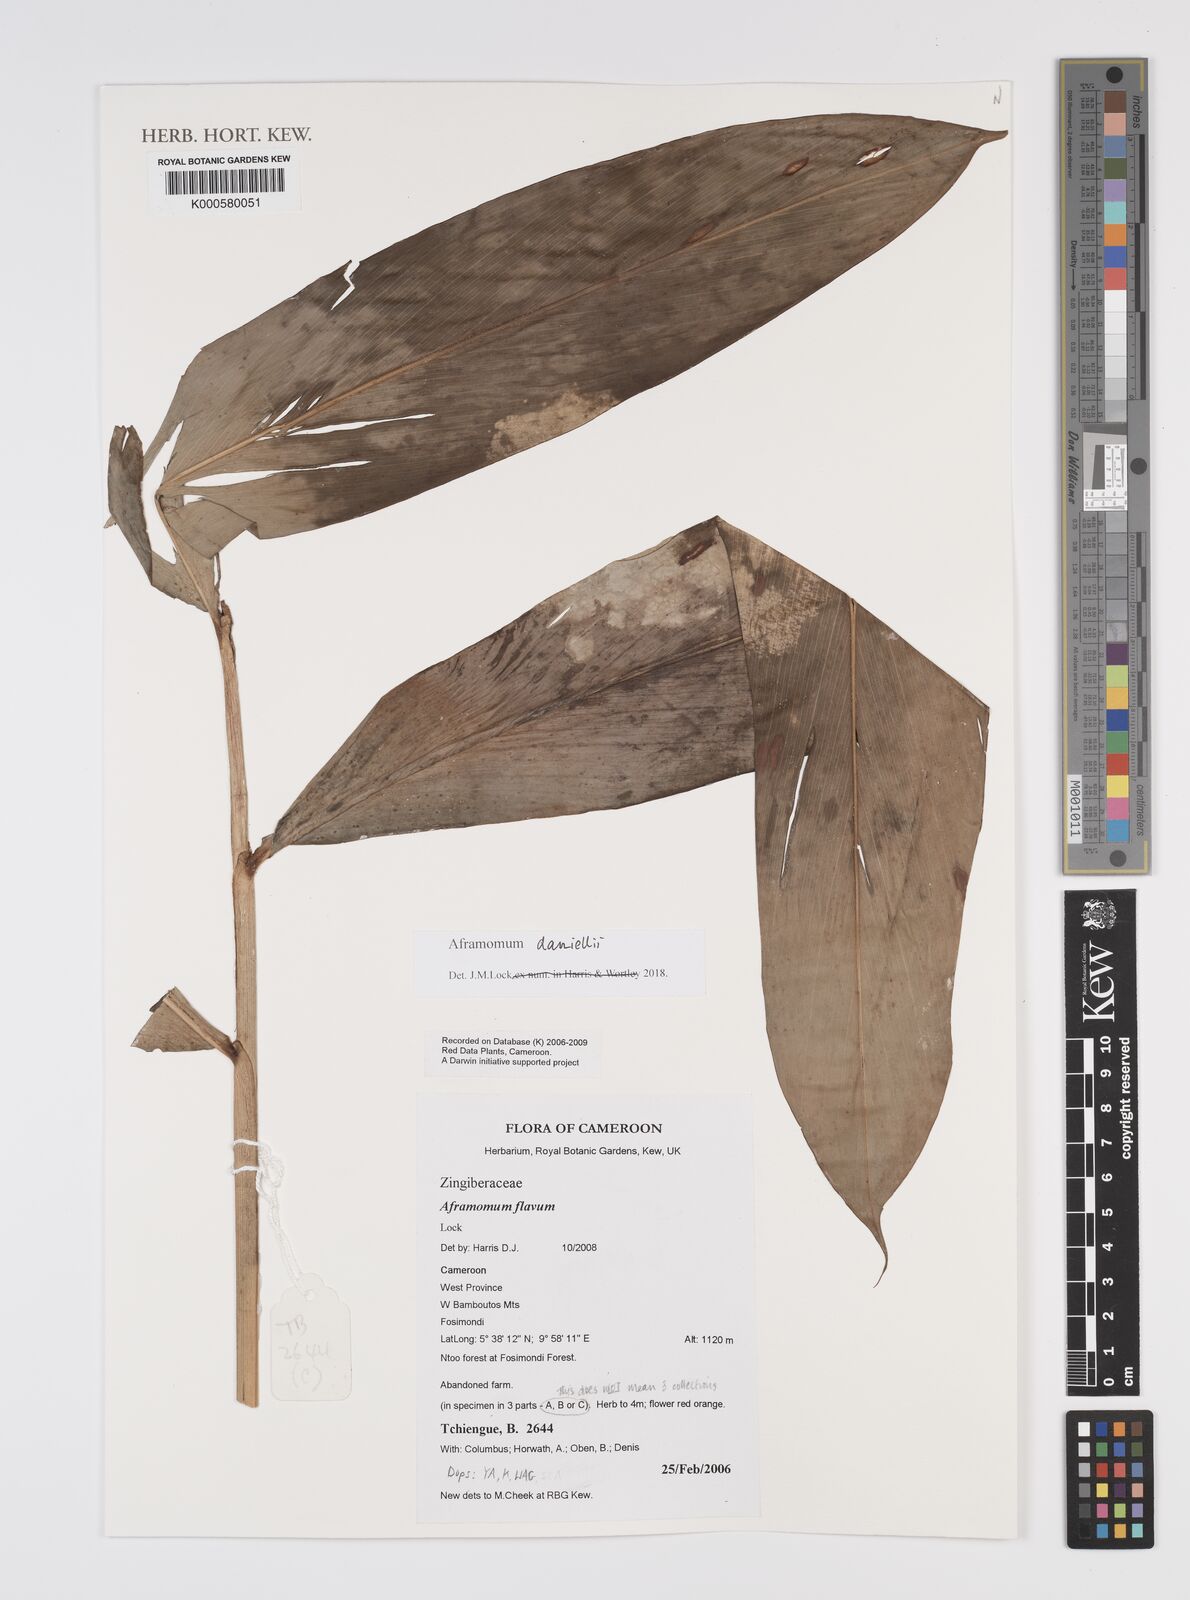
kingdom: Plantae
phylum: Tracheophyta
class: Liliopsida
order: Zingiberales
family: Zingiberaceae
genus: Aframomum
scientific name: Aframomum daniellii
